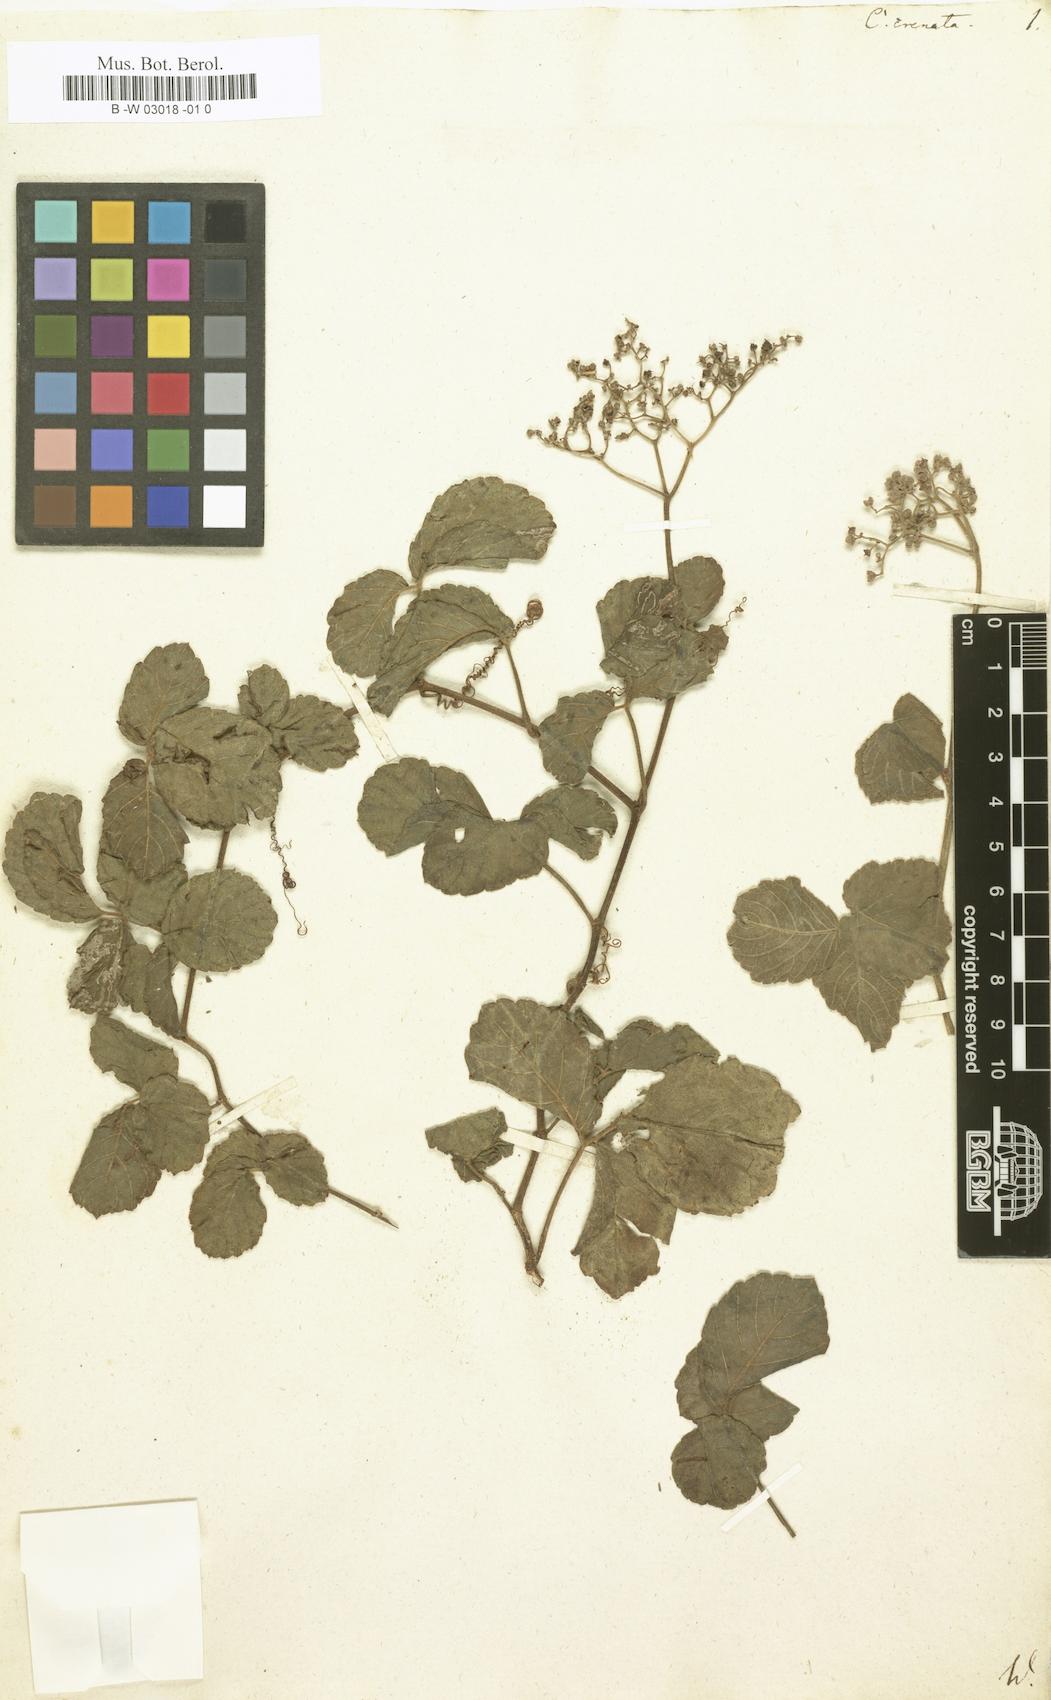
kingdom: Plantae
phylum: Tracheophyta
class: Magnoliopsida
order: Vitales
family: Vitaceae
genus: Cissus
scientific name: Cissus crenata
